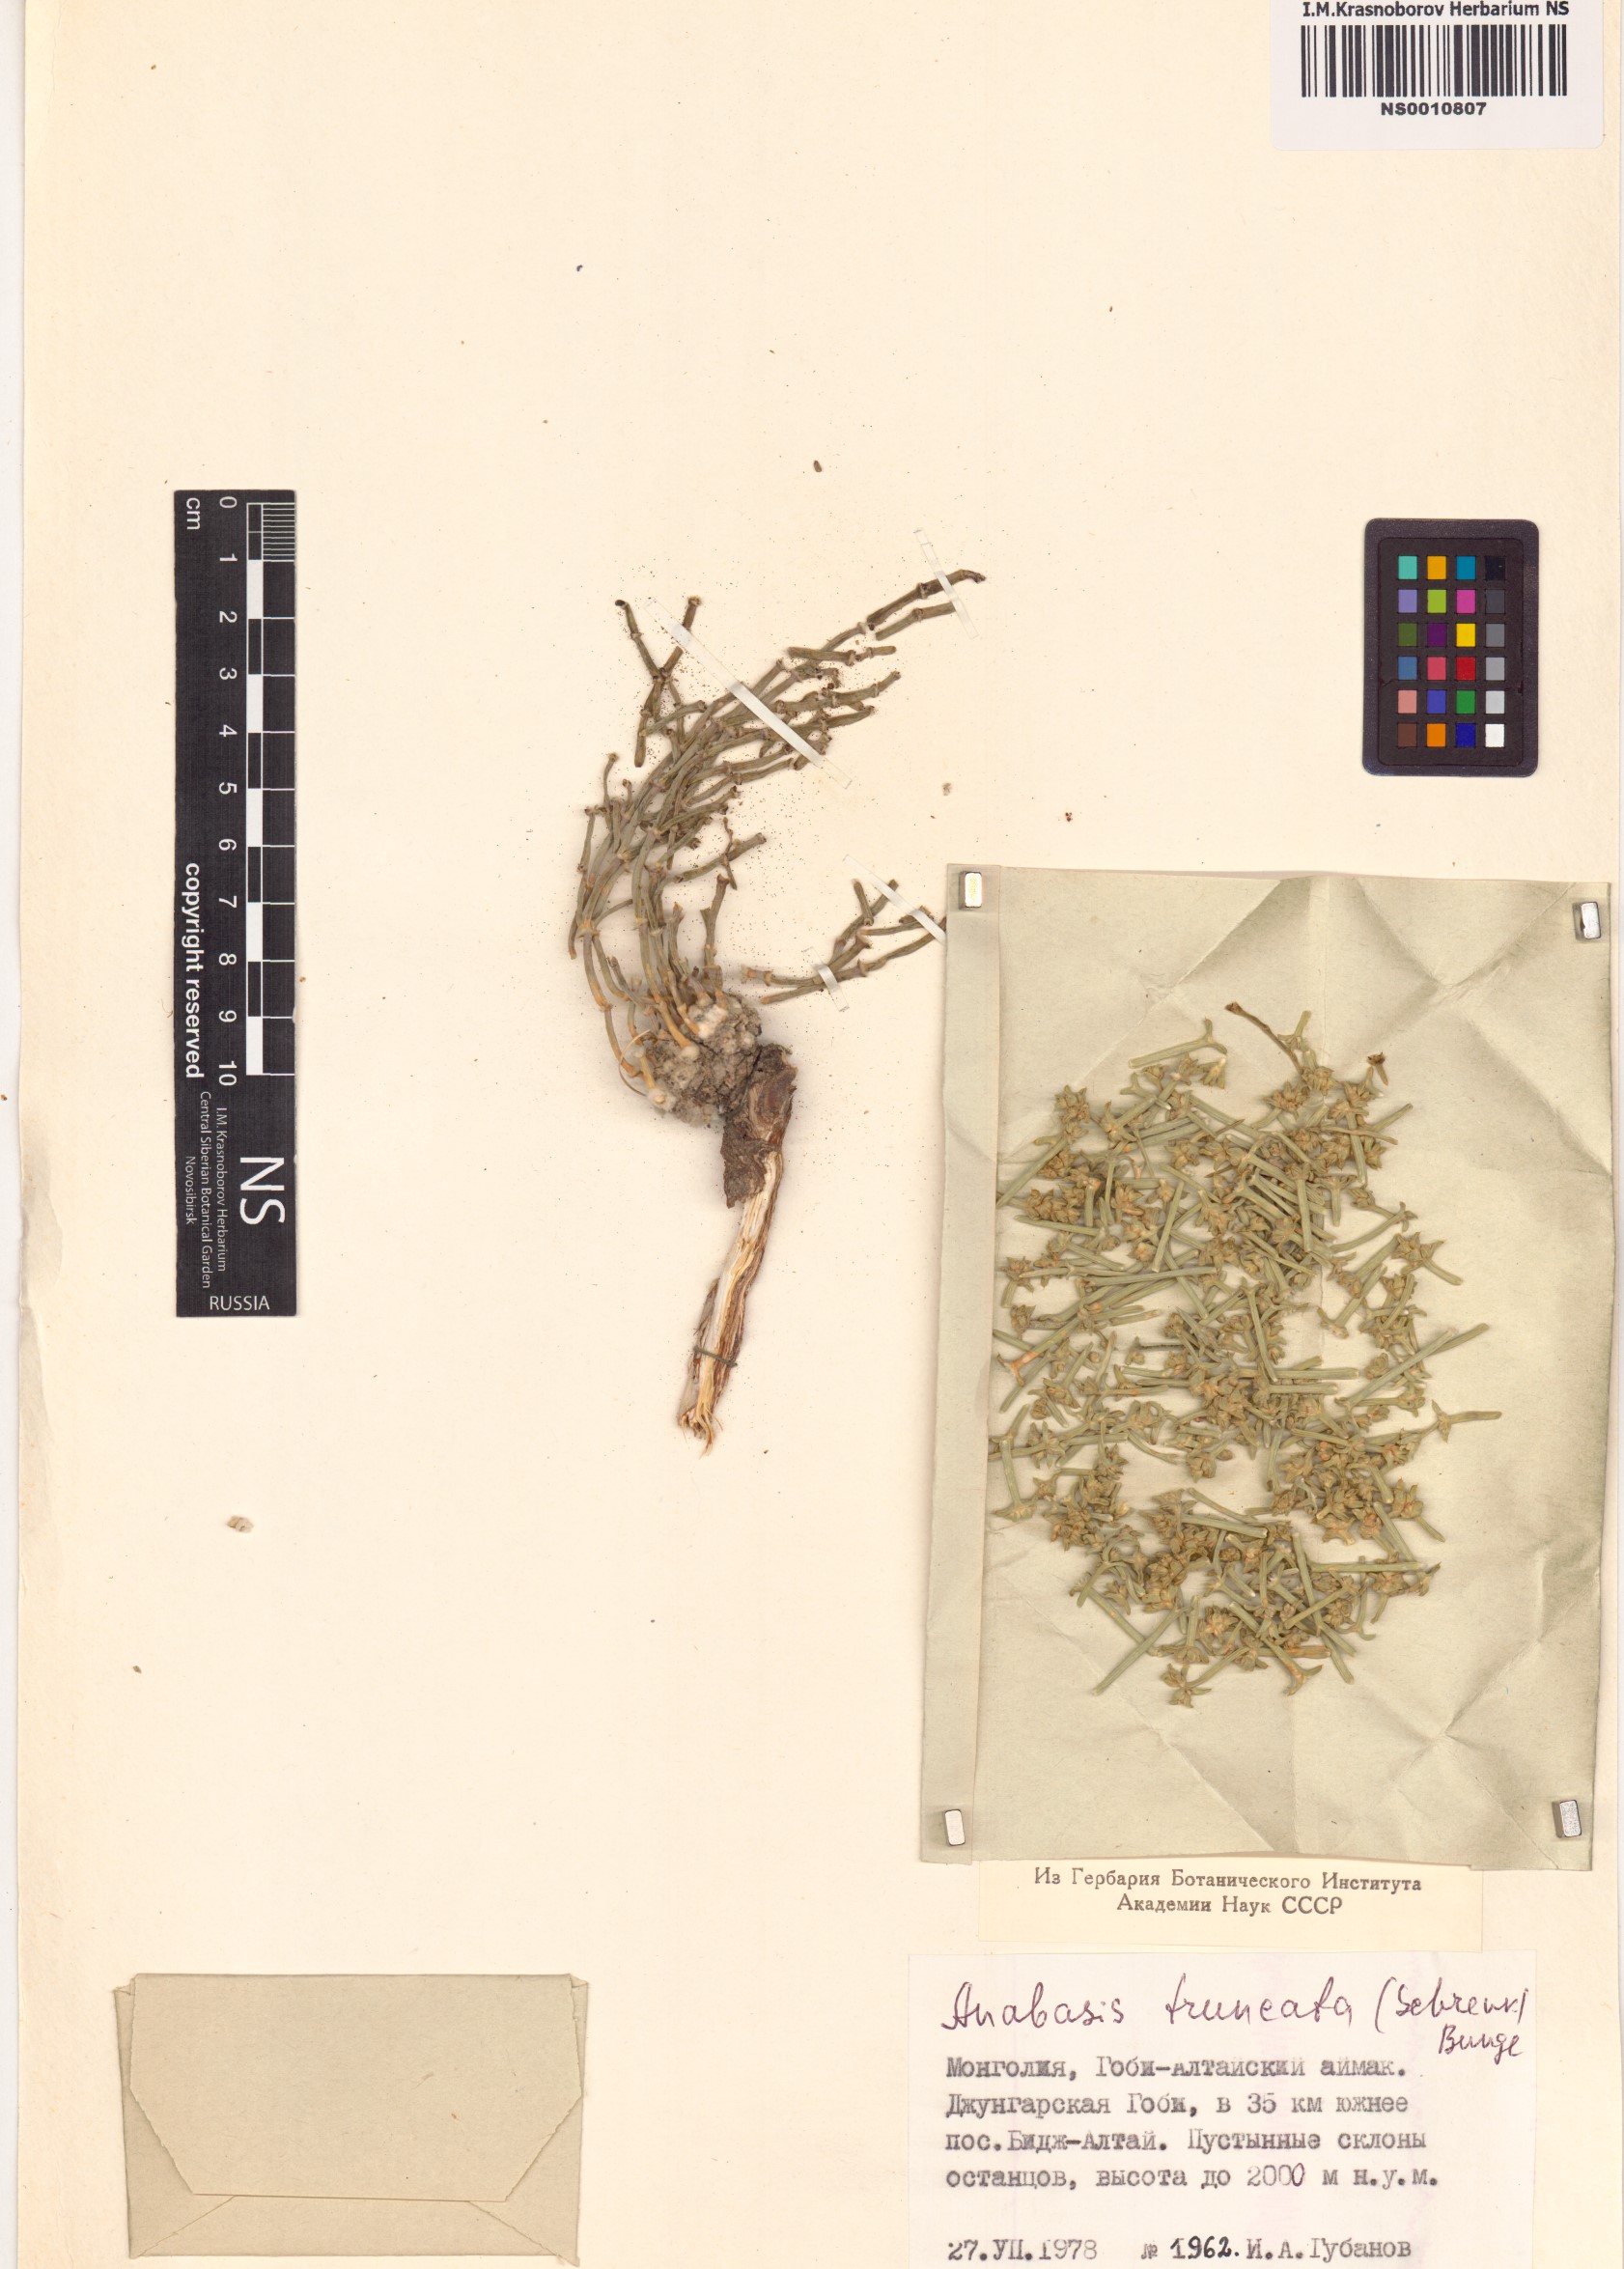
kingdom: Plantae
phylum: Tracheophyta
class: Magnoliopsida
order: Caryophyllales
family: Amaranthaceae
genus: Anabasis
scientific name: Anabasis truncata
